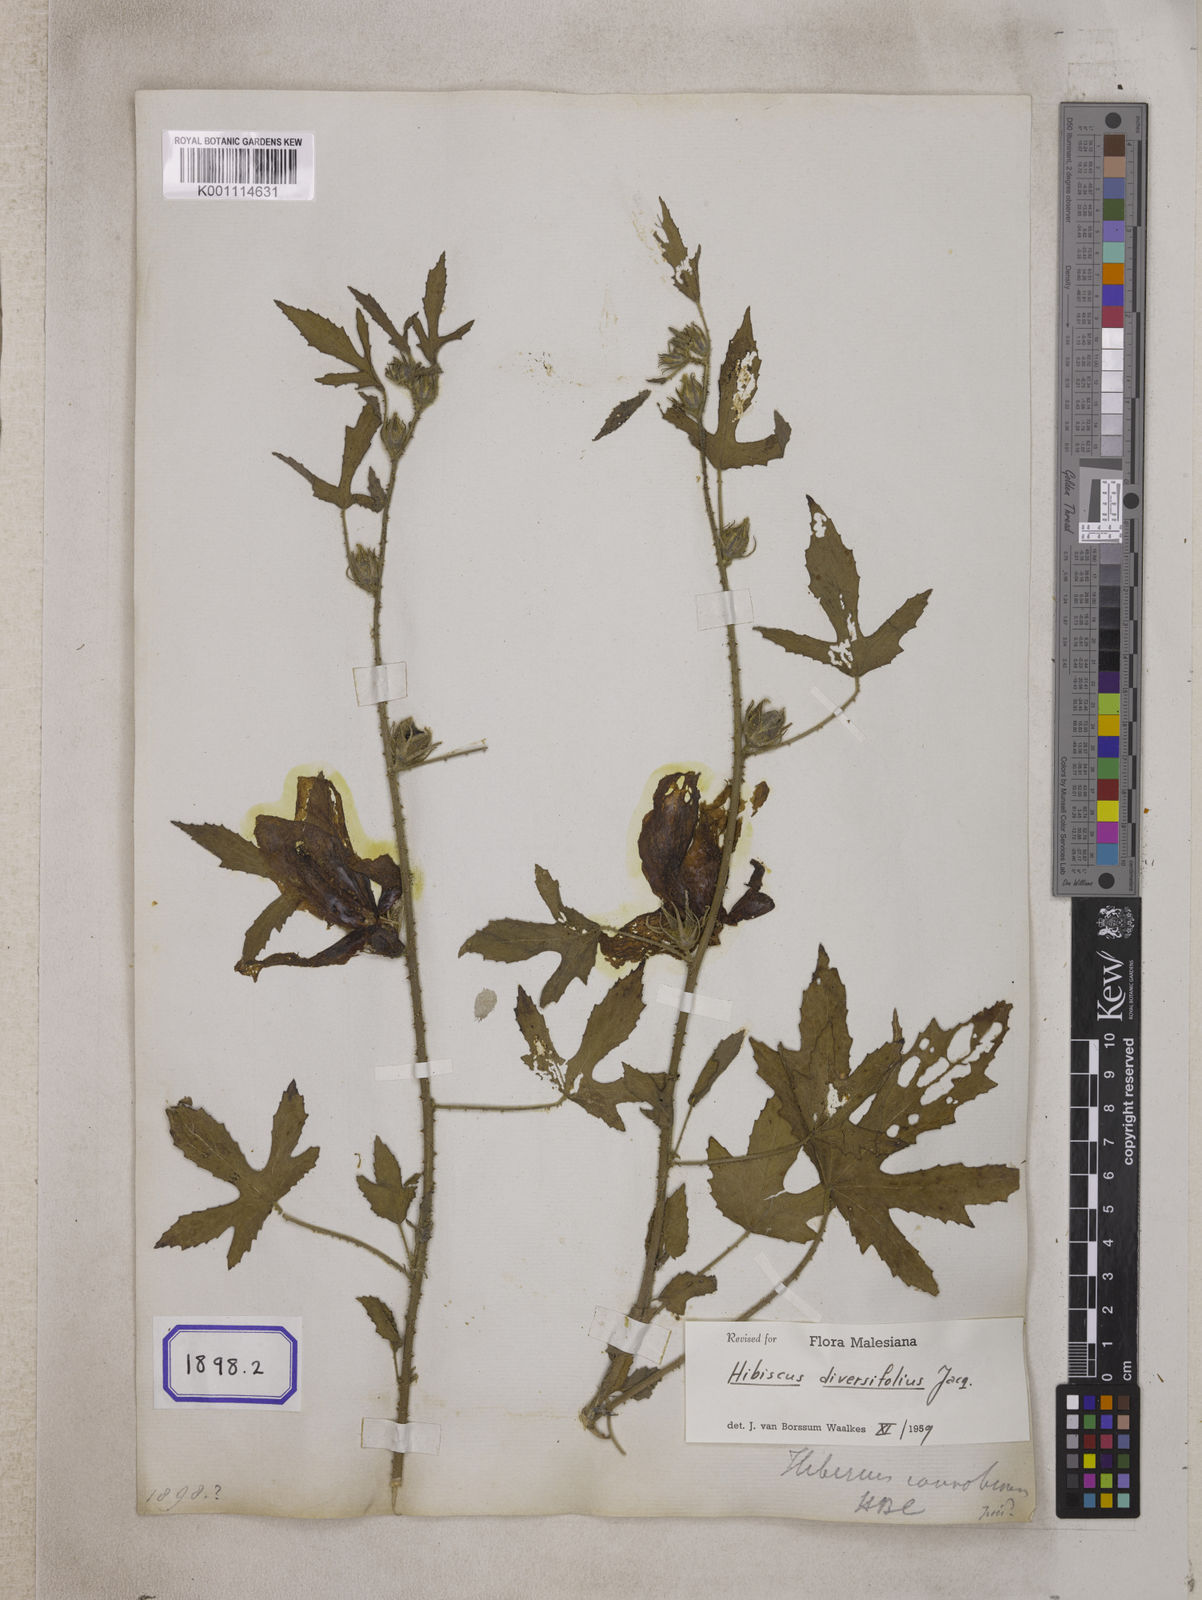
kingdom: Plantae
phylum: Tracheophyta
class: Magnoliopsida
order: Malvales
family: Malvaceae
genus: Hibiscus
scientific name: Hibiscus cannabinus
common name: Brown indianhemp
